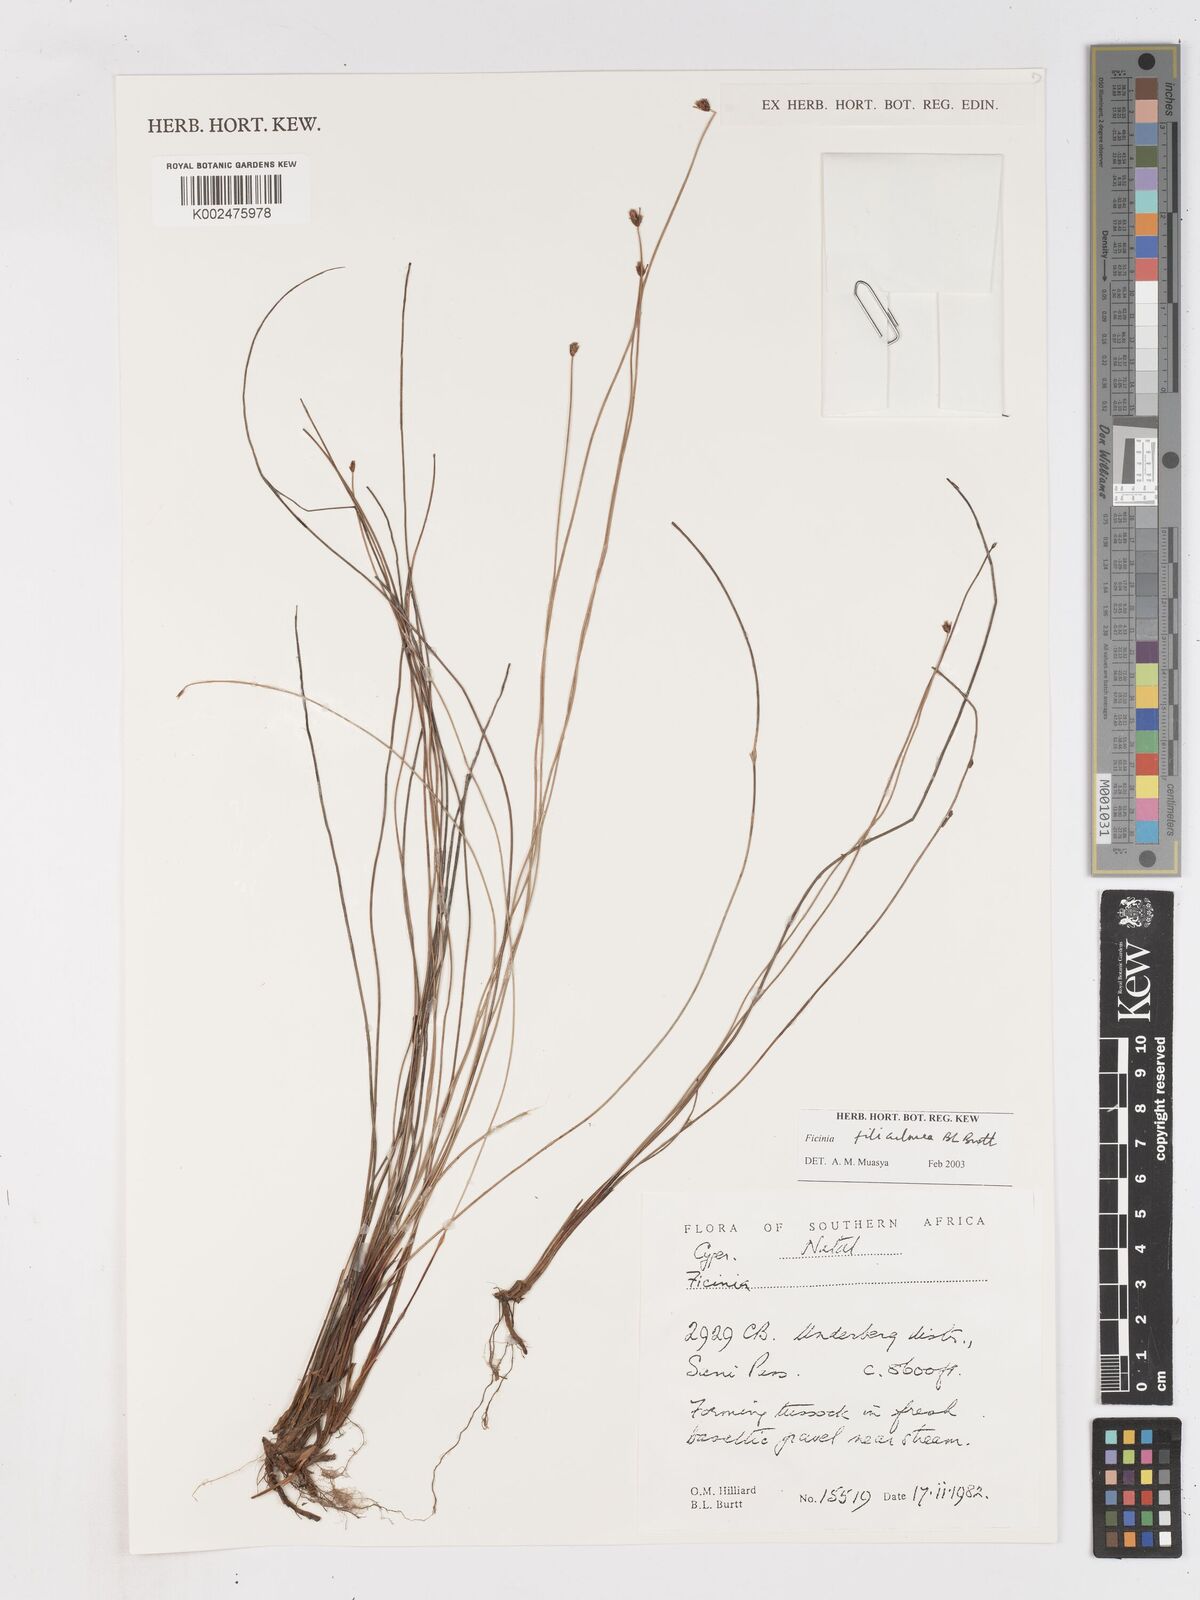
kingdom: Plantae
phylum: Tracheophyta
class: Liliopsida
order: Poales
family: Cyperaceae
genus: Ficinia
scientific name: Ficinia filiculmea
